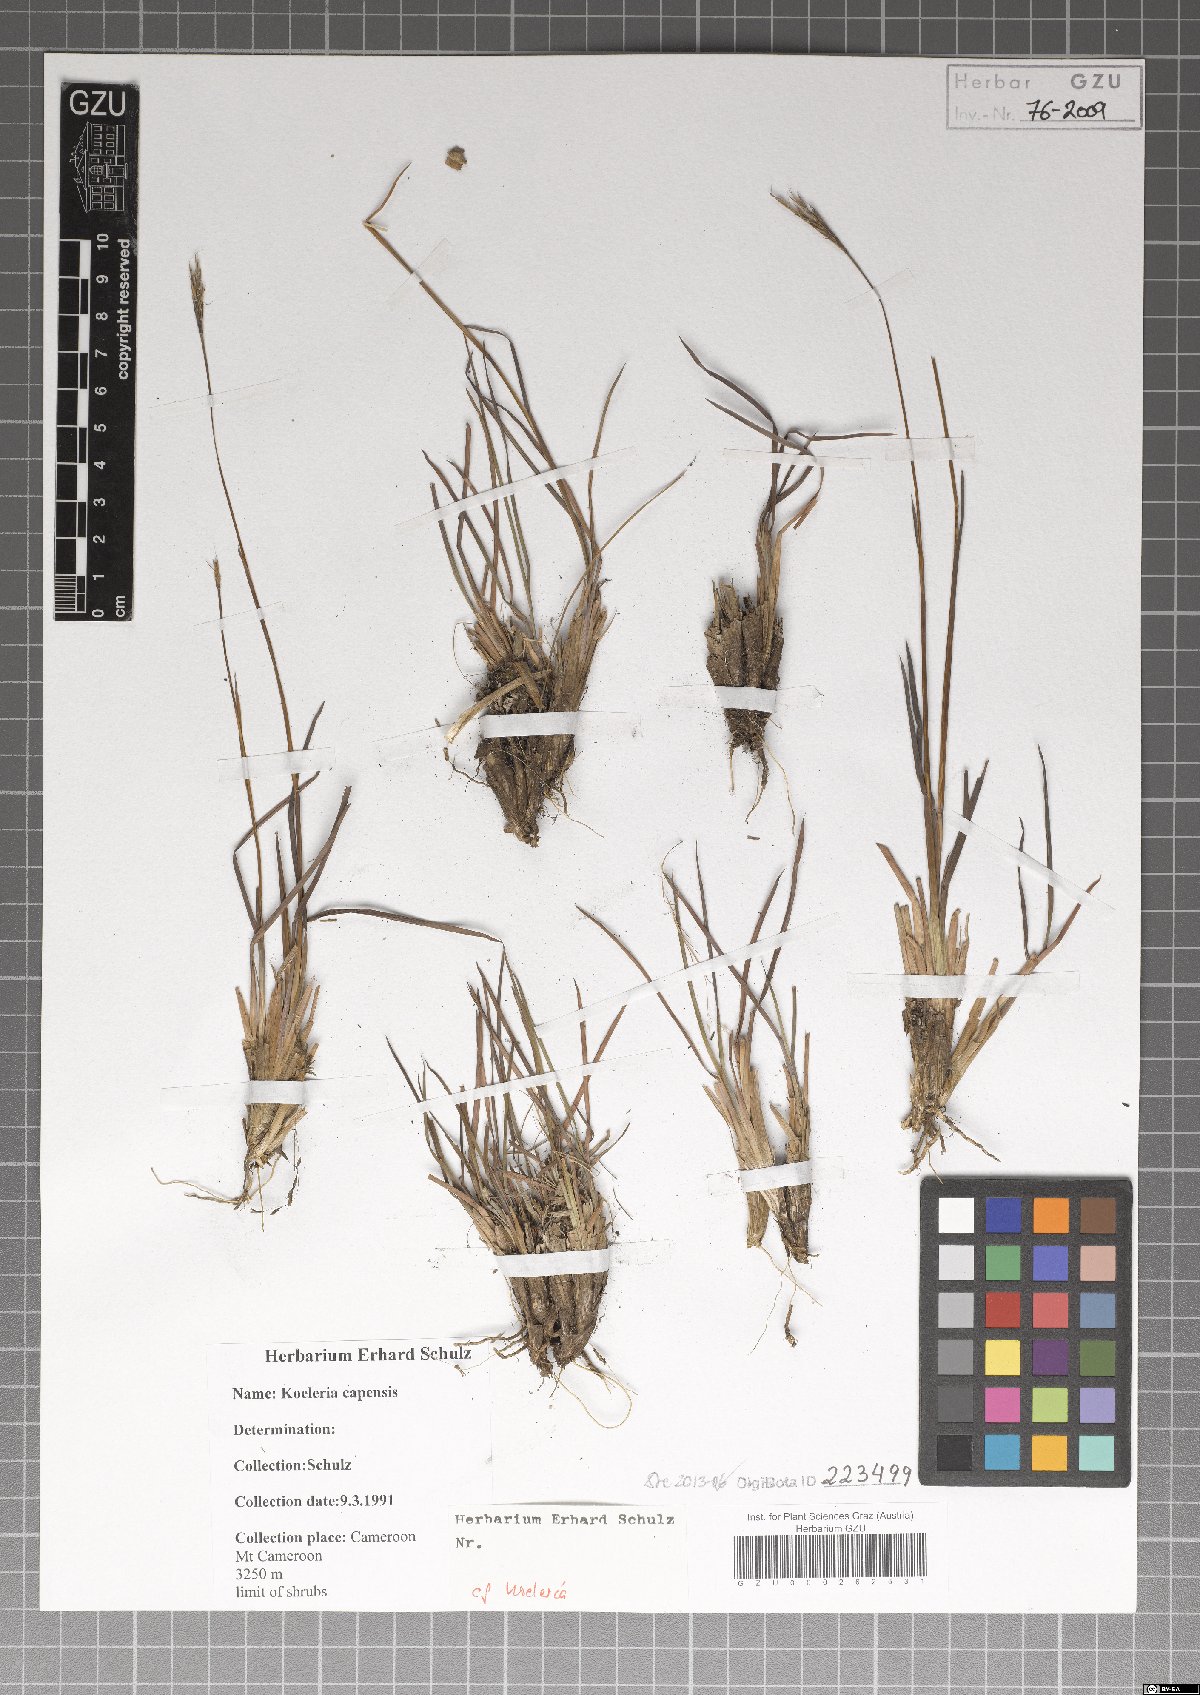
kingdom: Plantae
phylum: Tracheophyta
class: Liliopsida
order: Poales
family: Poaceae
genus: Koeleria
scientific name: Koeleria capensis
